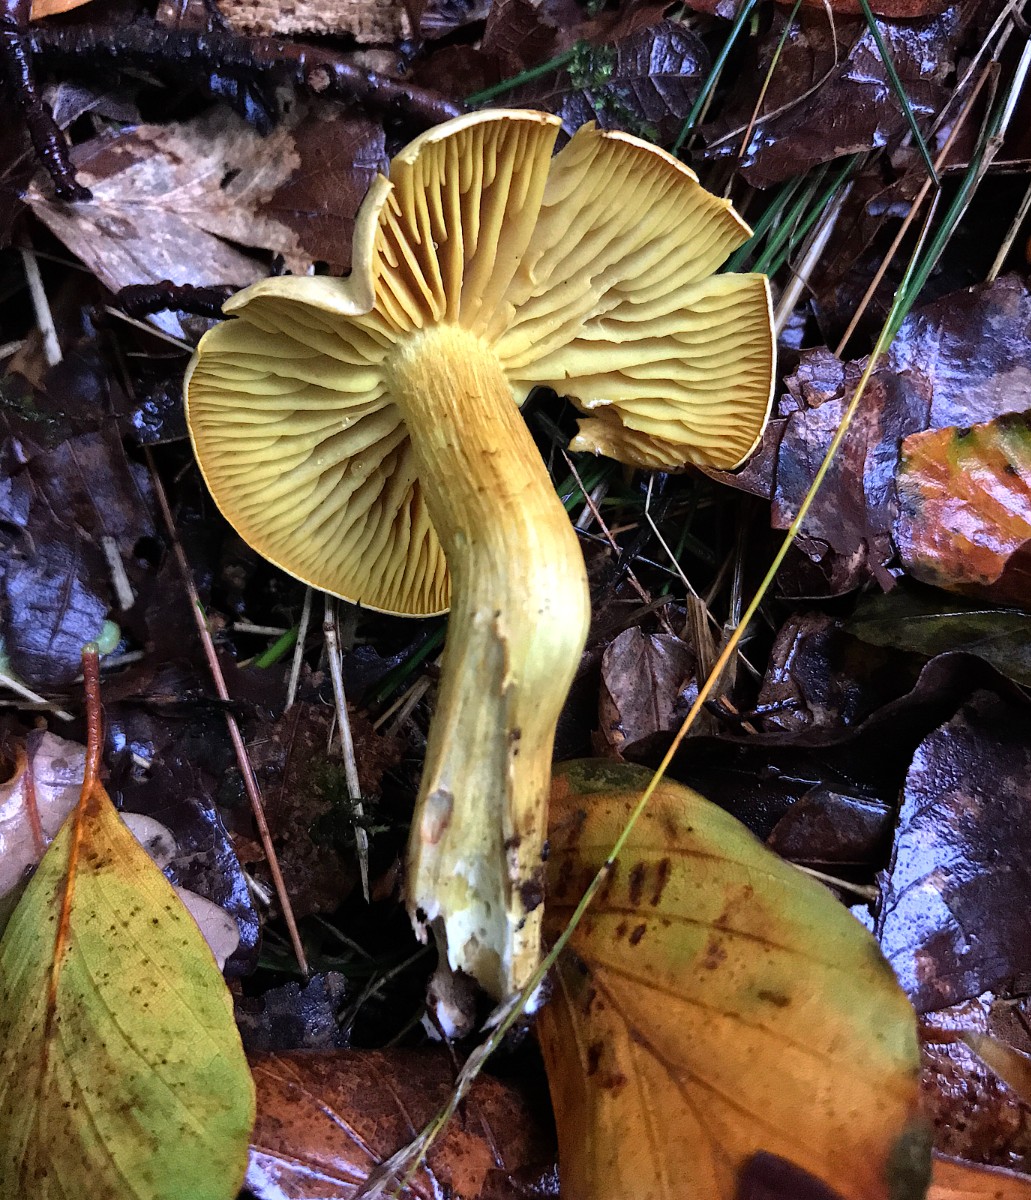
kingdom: Fungi
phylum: Basidiomycota
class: Agaricomycetes
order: Agaricales
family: Tricholomataceae
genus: Tricholoma
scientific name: Tricholoma sulphureum
